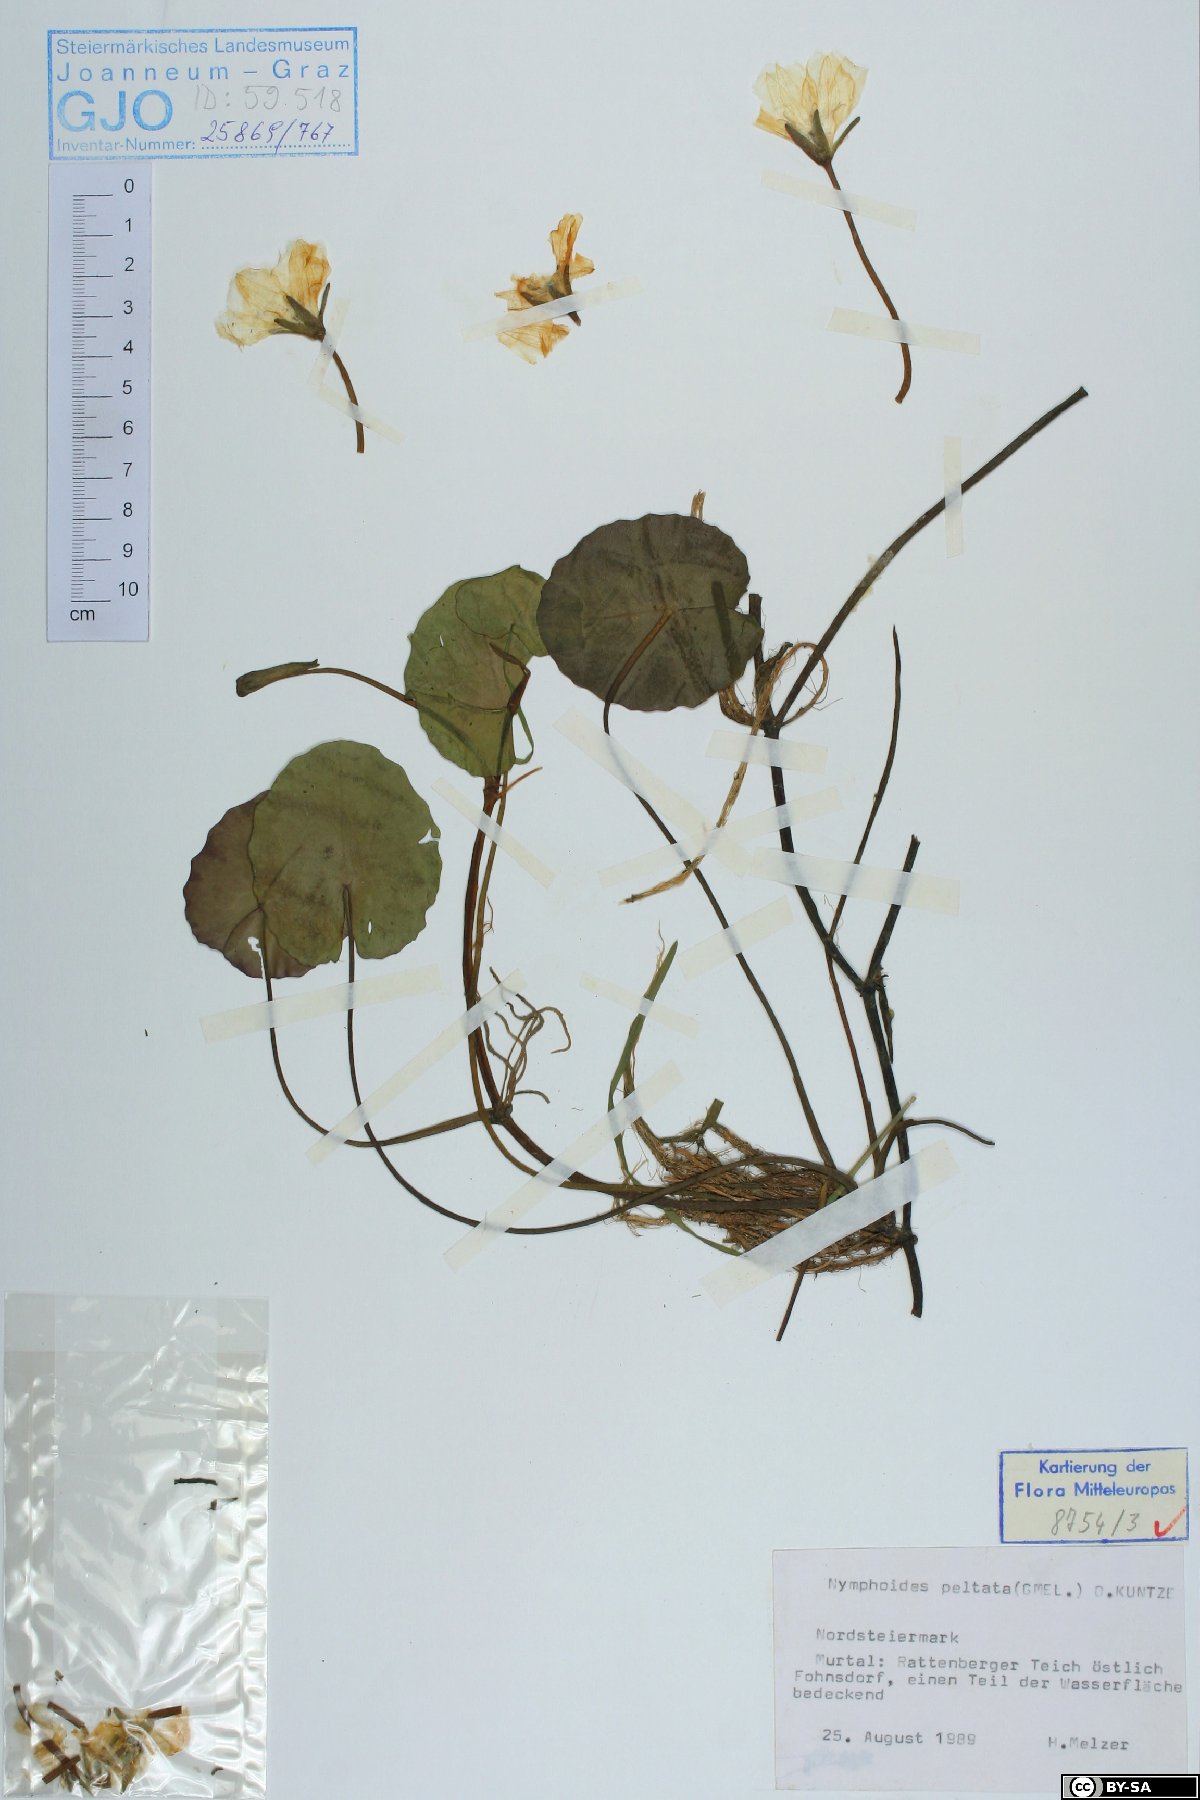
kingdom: Plantae
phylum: Tracheophyta
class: Magnoliopsida
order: Asterales
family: Menyanthaceae
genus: Nymphoides
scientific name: Nymphoides peltata
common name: Fringed water-lily
